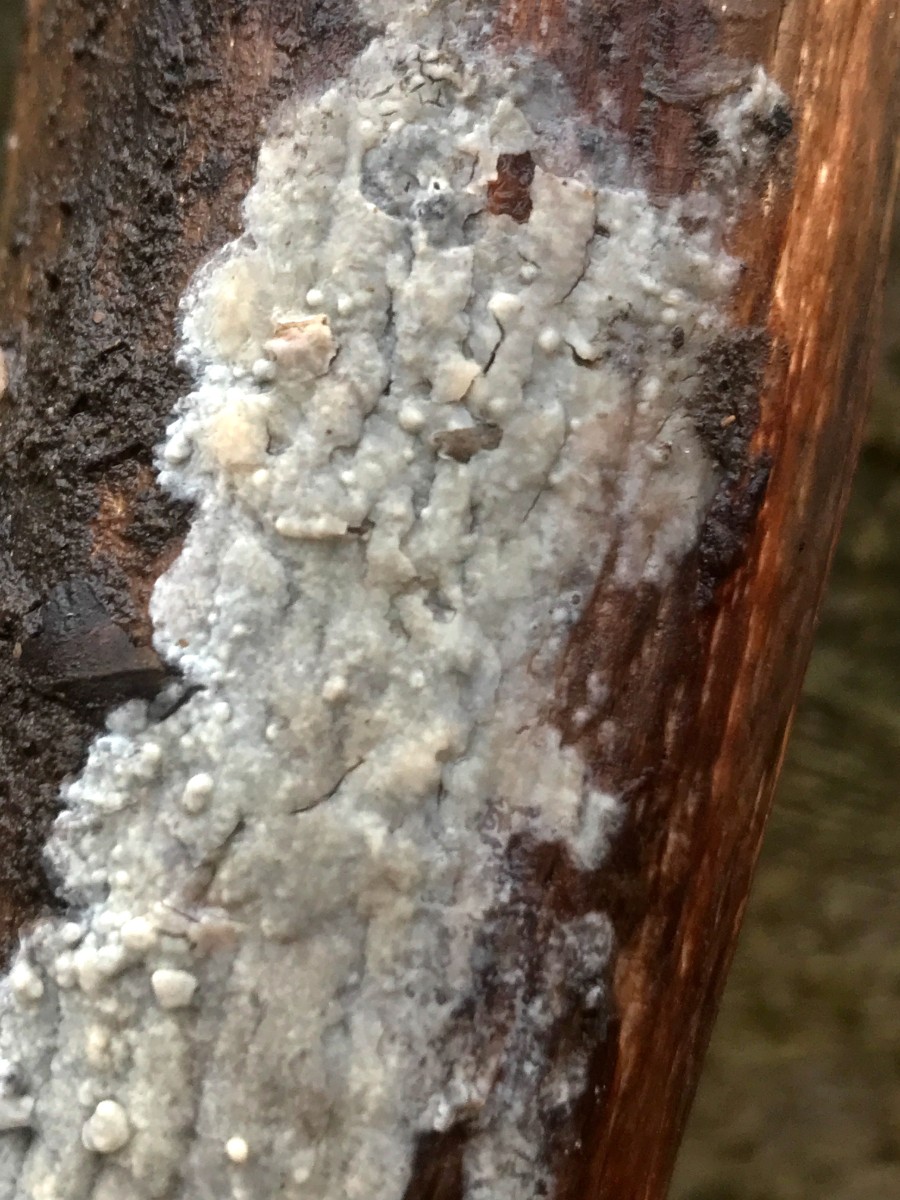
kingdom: Fungi
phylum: Basidiomycota
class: Agaricomycetes
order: Corticiales
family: Corticiaceae
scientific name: Corticiaceae
